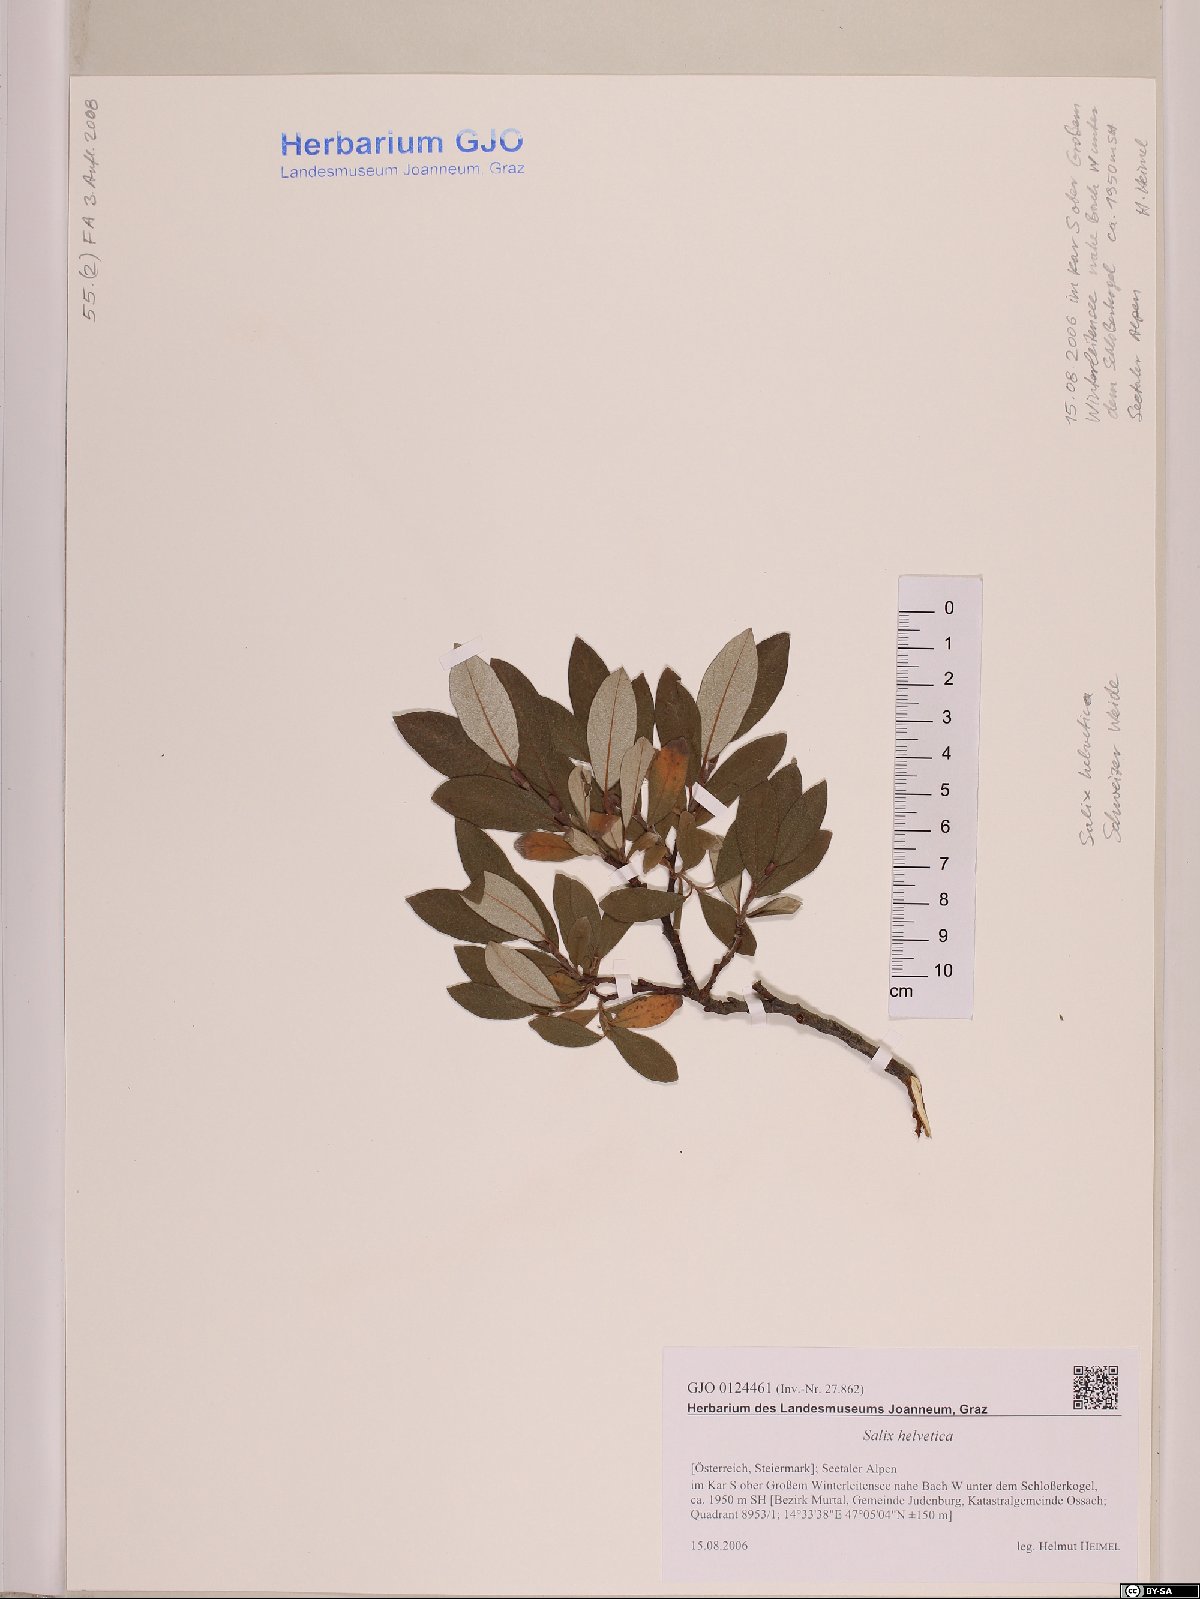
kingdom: Plantae
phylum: Tracheophyta
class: Magnoliopsida
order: Malpighiales
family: Salicaceae
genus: Salix
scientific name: Salix helvetica
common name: Swiss willow
